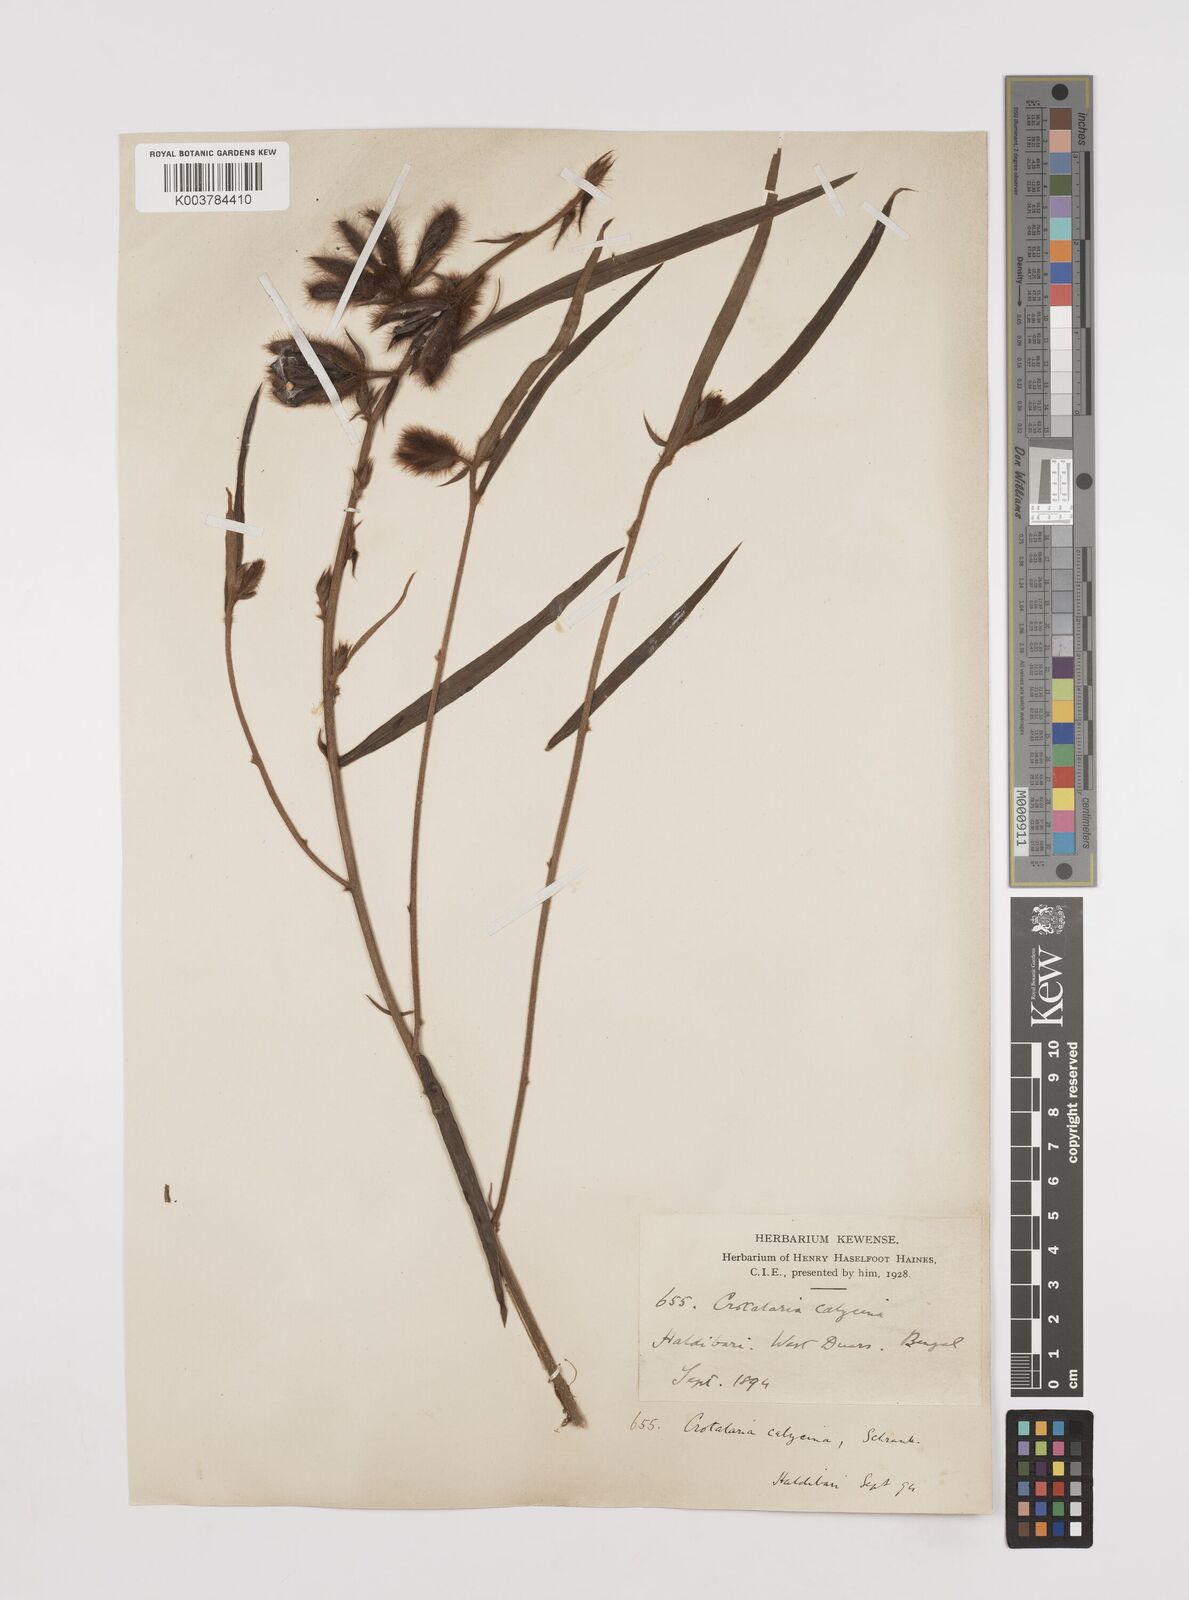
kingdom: Plantae
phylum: Tracheophyta
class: Magnoliopsida
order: Fabales
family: Fabaceae
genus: Crotalaria
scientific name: Crotalaria calycina
